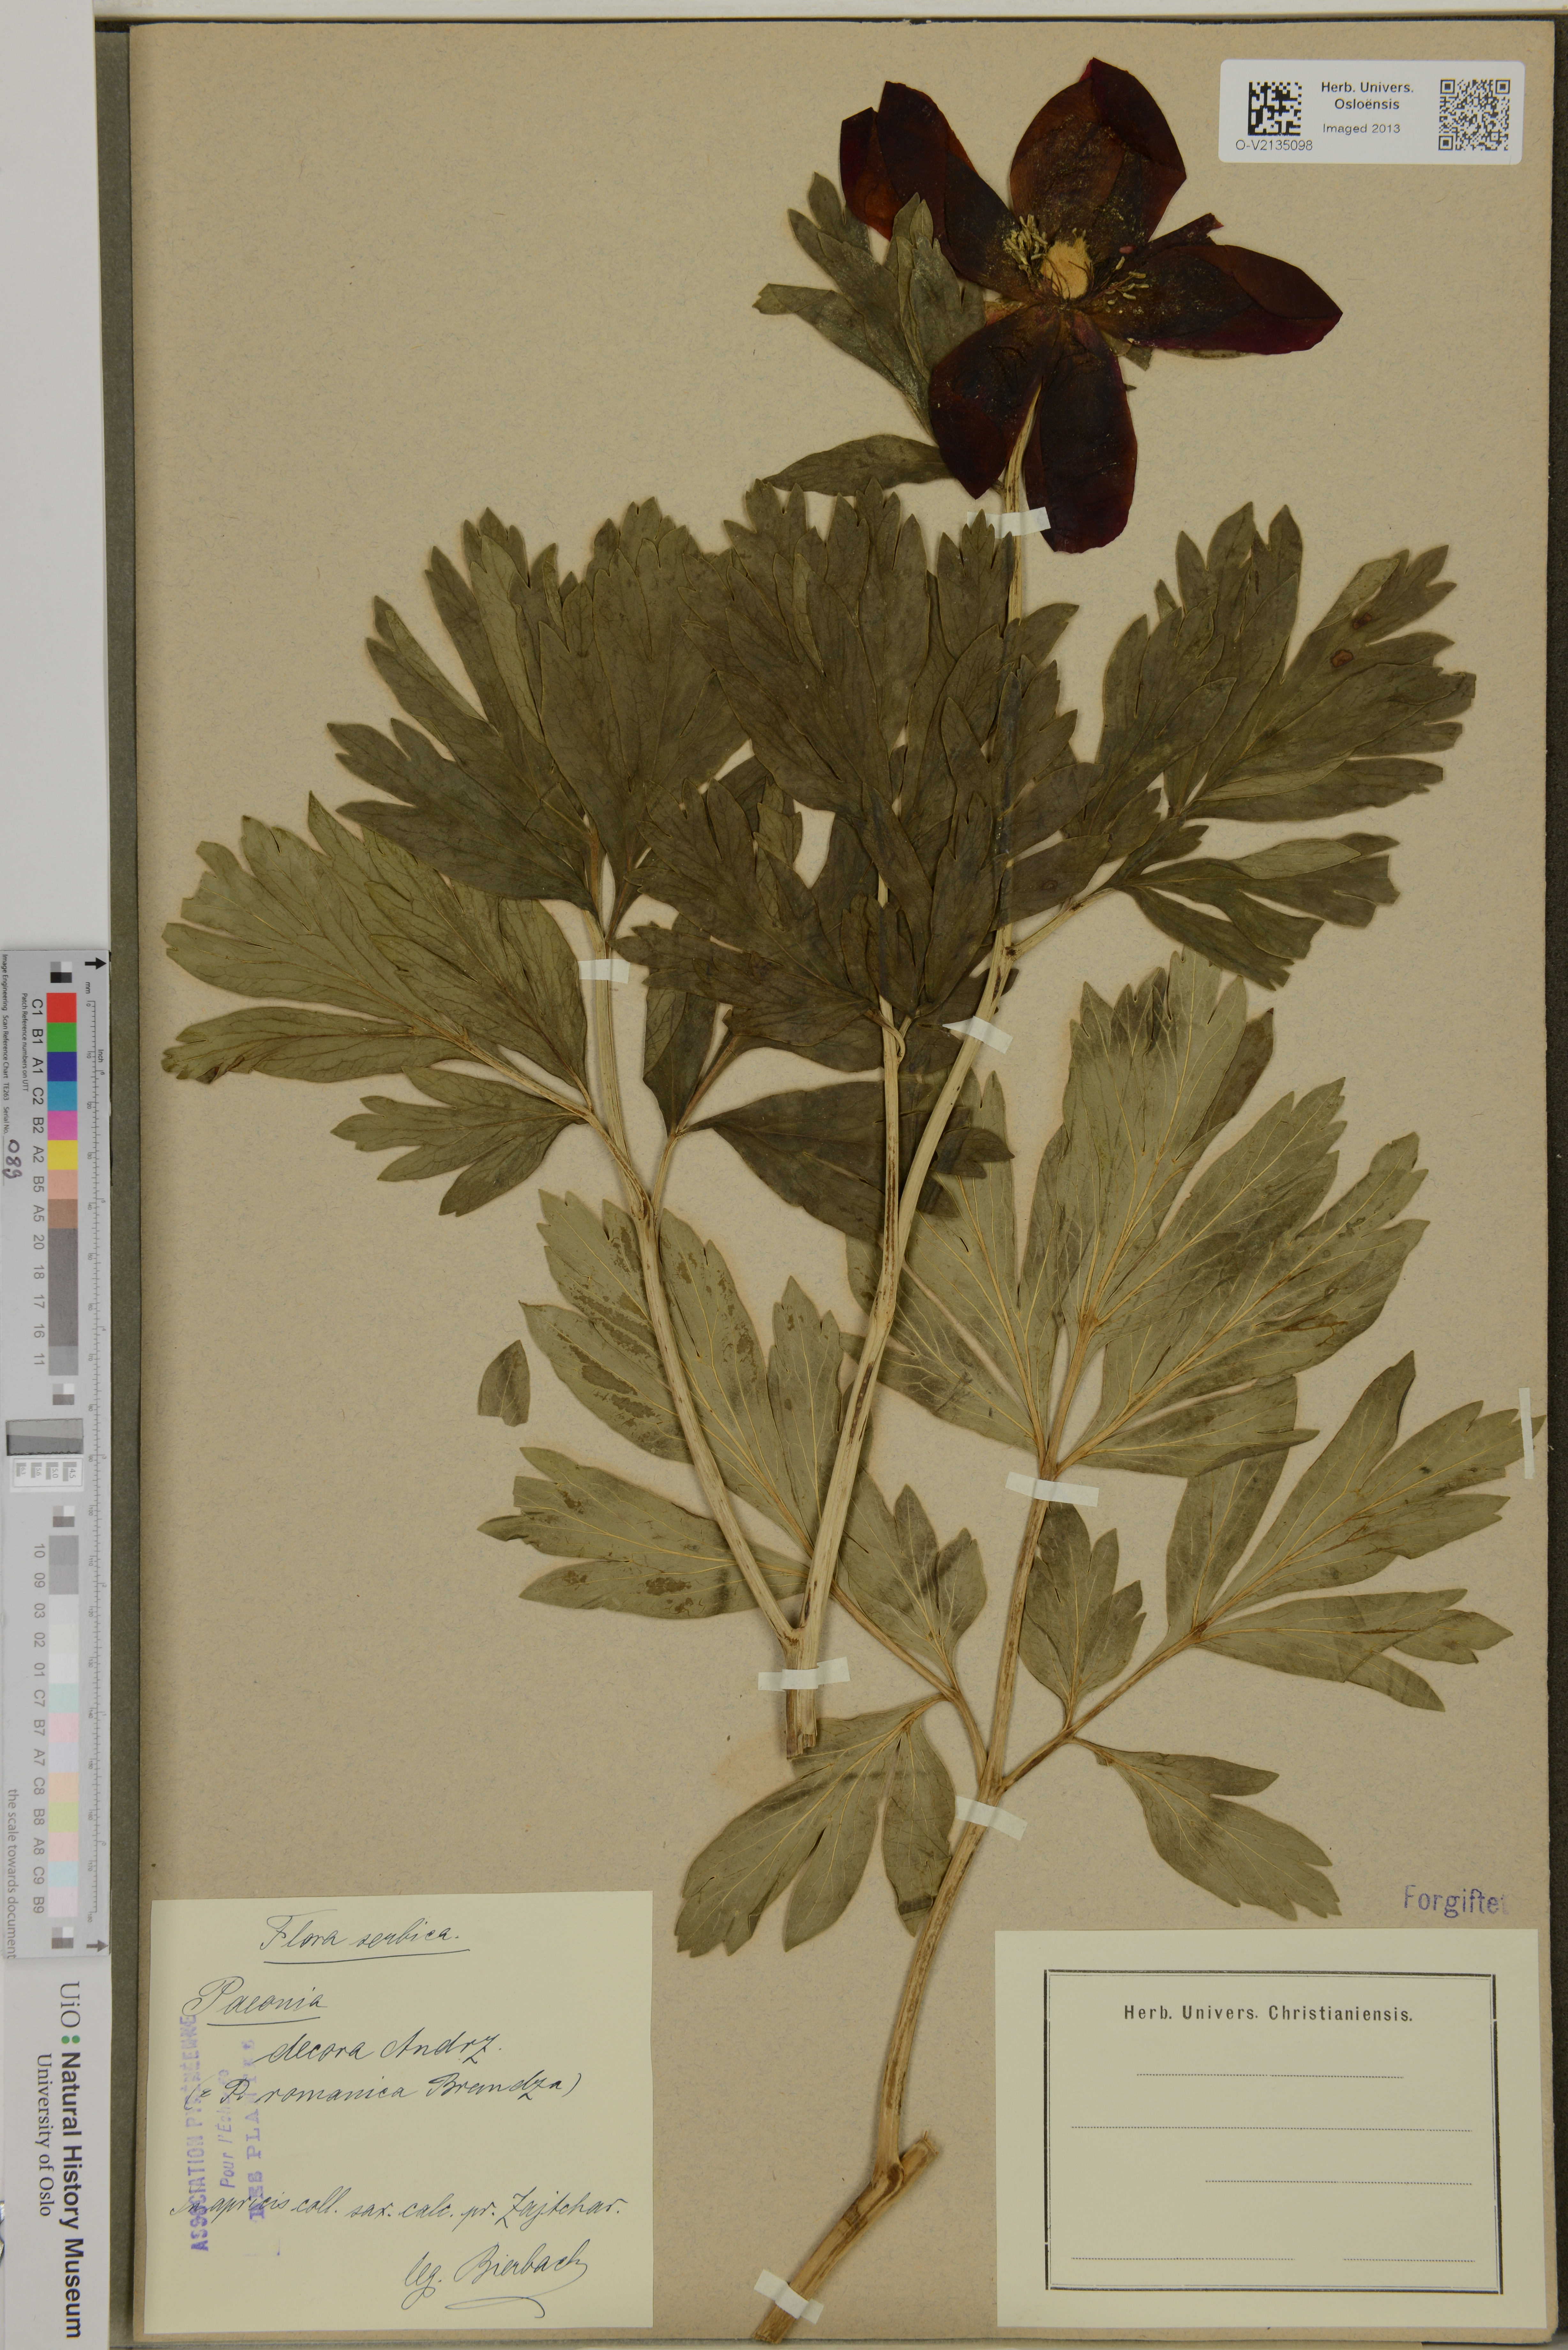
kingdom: Plantae
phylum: Tracheophyta
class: Magnoliopsida
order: Saxifragales
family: Paeoniaceae
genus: Paeonia
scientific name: Paeonia peregrina
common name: Scarlet peony
